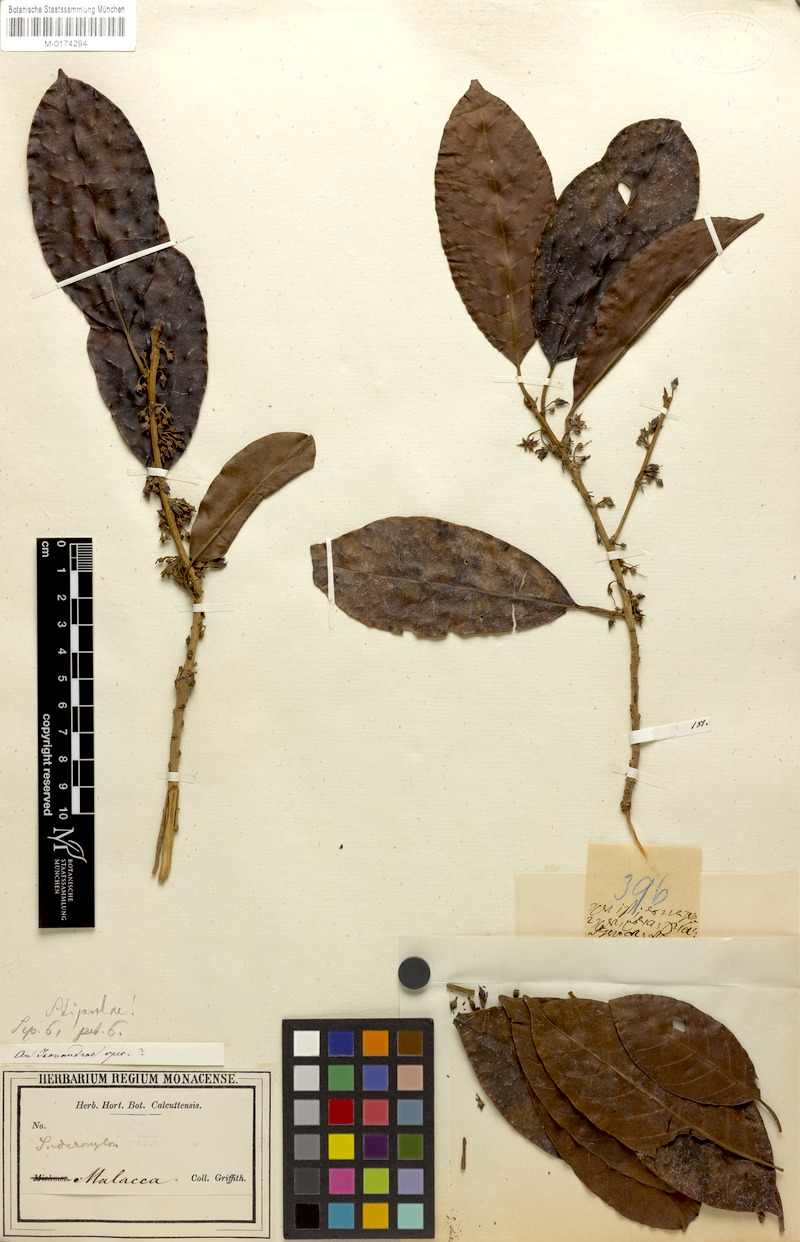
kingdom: Plantae
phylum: Tracheophyta
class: Magnoliopsida
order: Ericales
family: Sapotaceae
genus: Palaquium
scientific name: Palaquium glabrum
